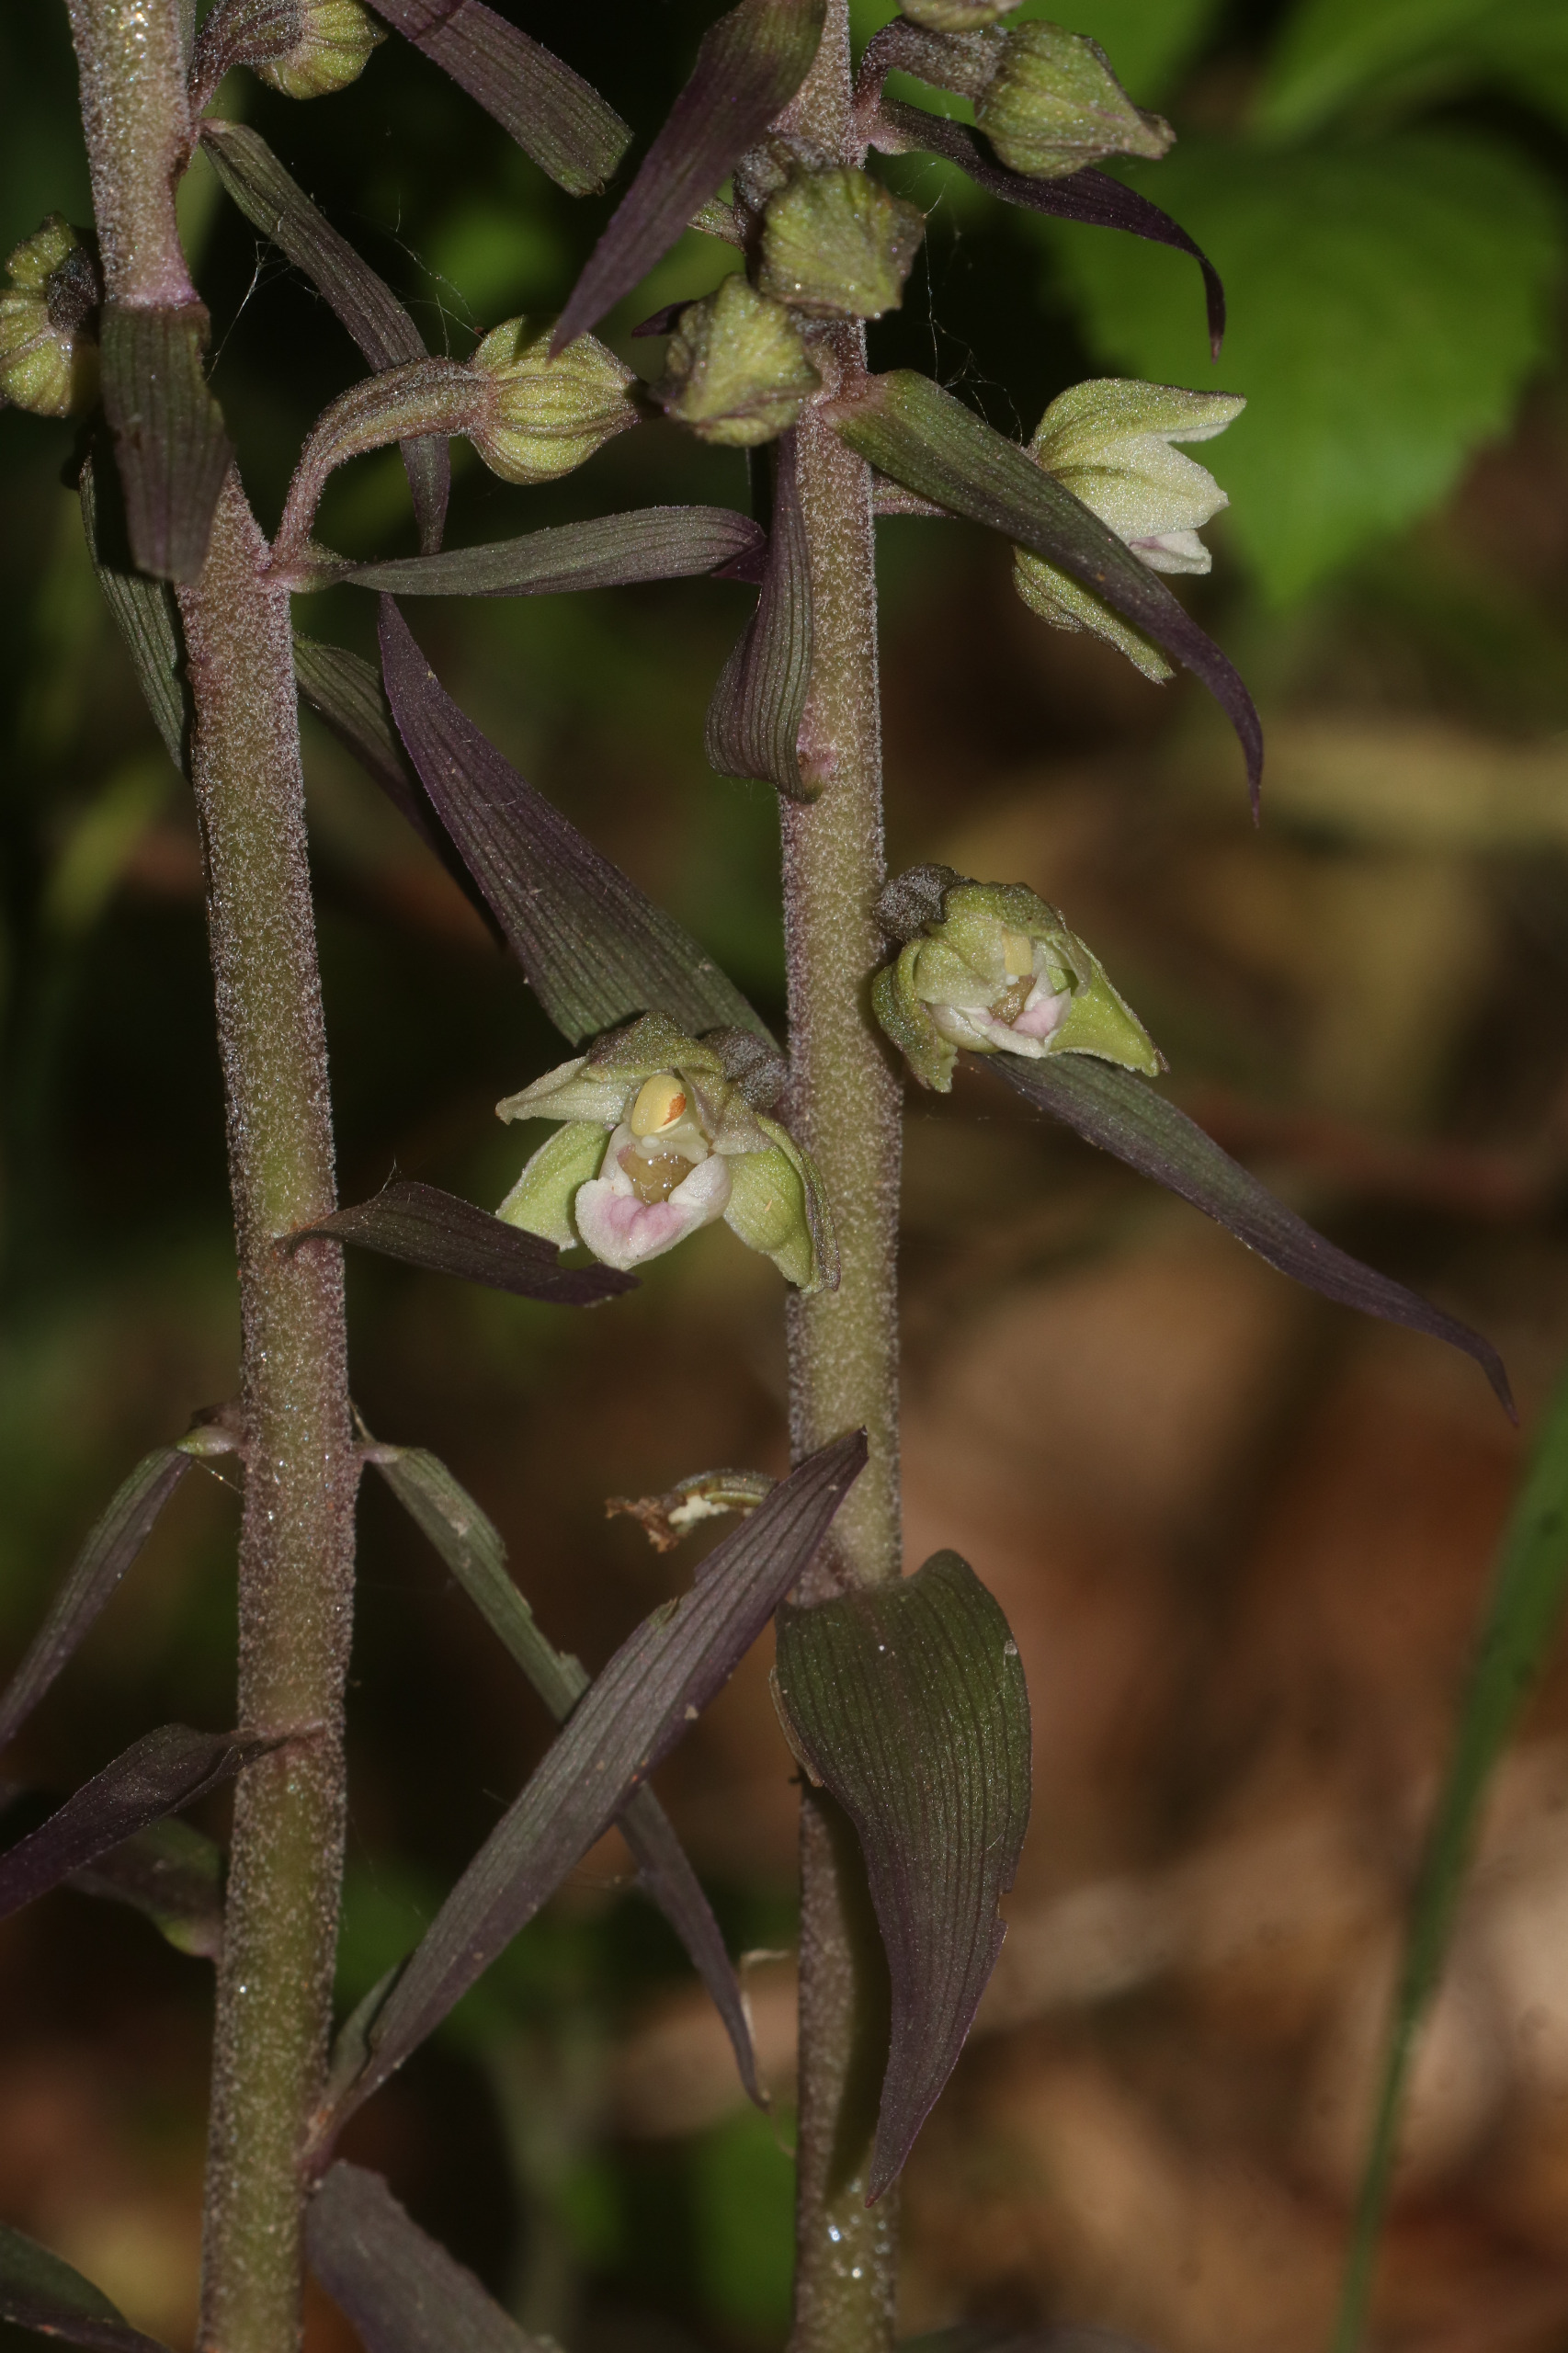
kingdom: Plantae
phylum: Tracheophyta
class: Liliopsida
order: Asparagales
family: Orchidaceae
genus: Epipactis
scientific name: Epipactis purpurata
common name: Tætblomstret hullæbe
